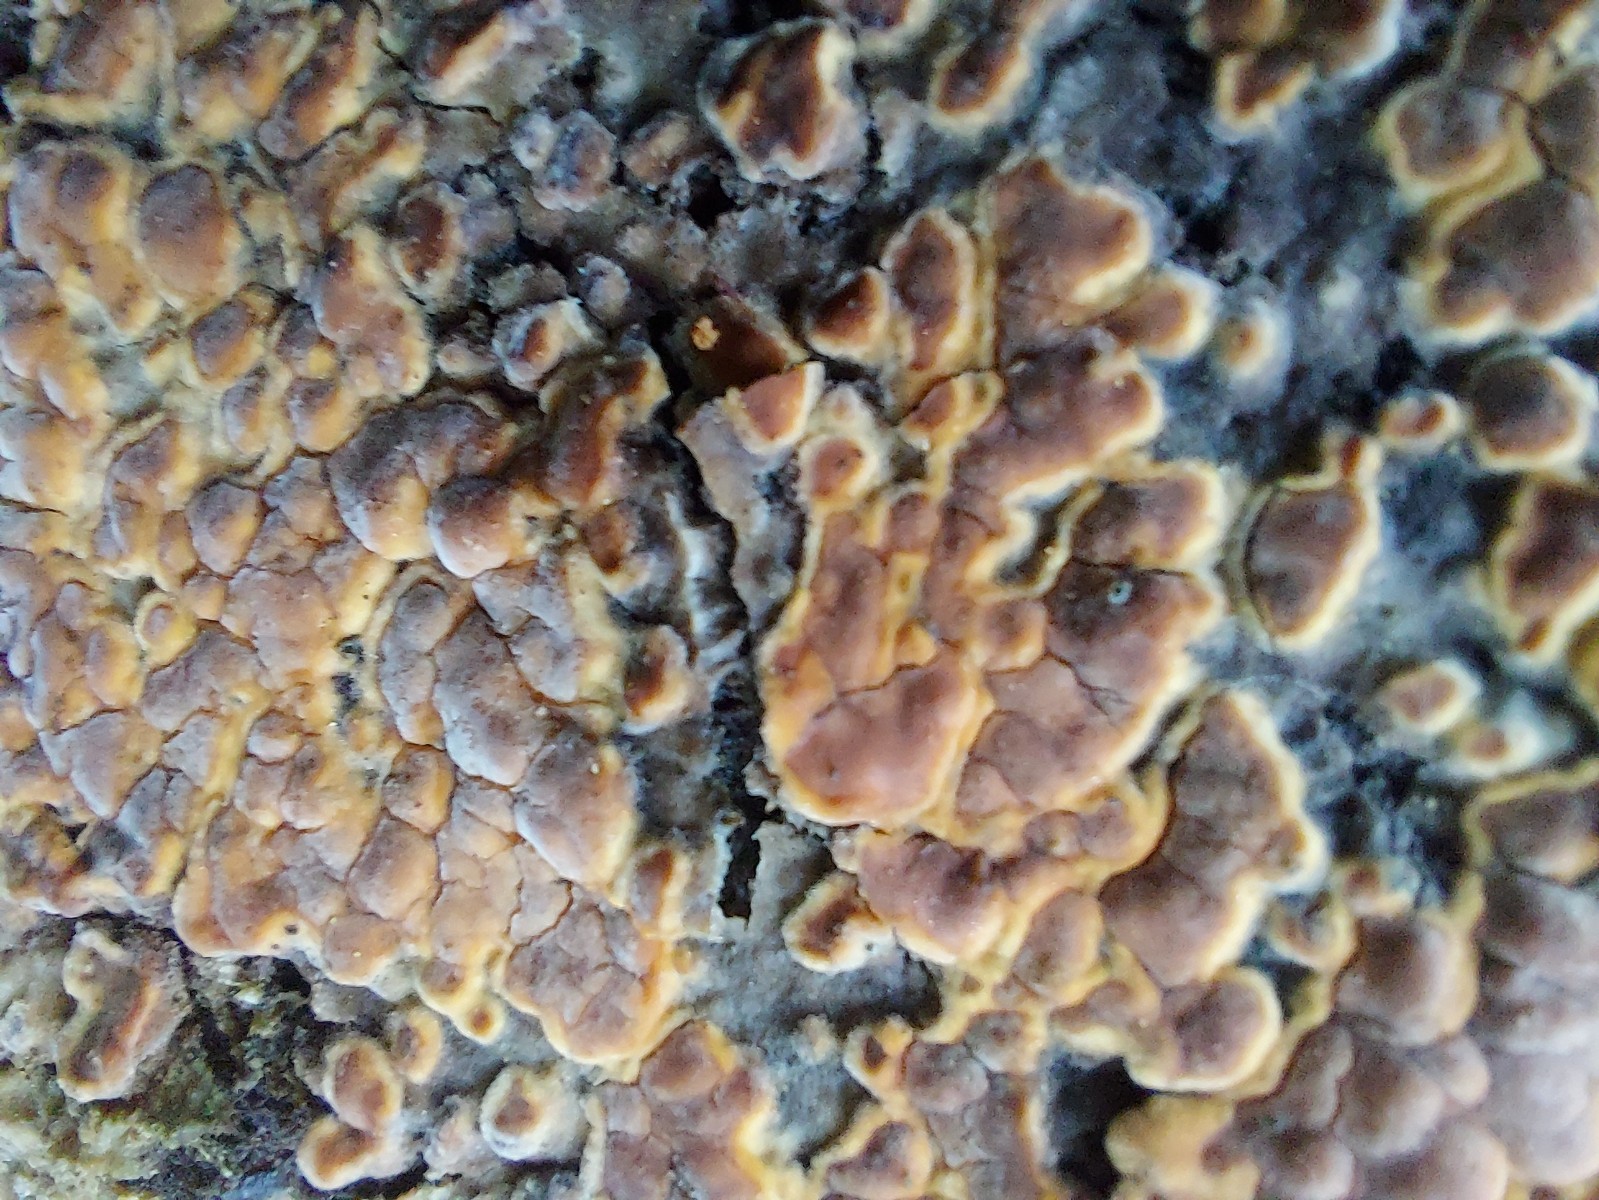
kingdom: Fungi
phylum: Basidiomycota
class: Agaricomycetes
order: Corticiales
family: Corticiaceae
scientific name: Corticiaceae
